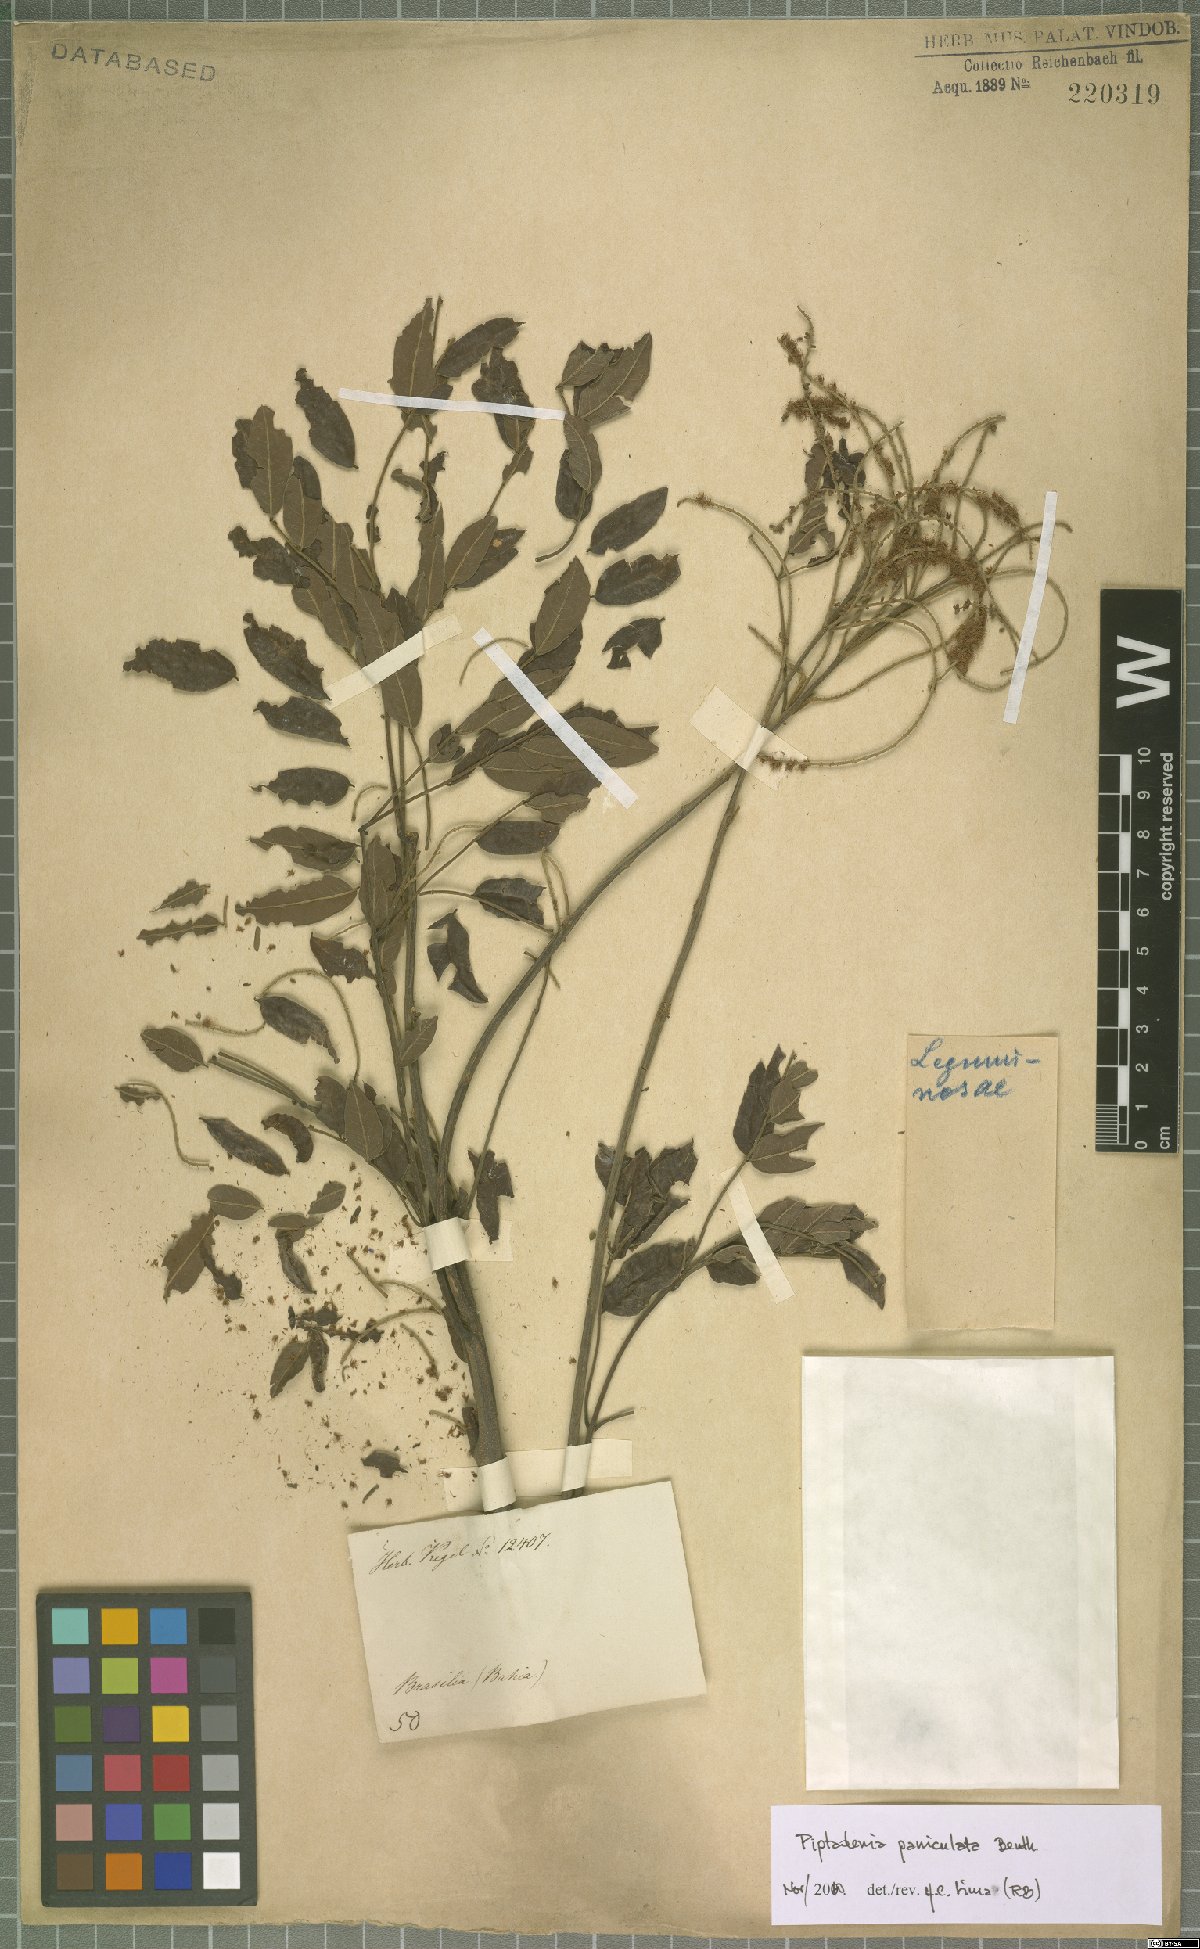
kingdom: Plantae
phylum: Tracheophyta
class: Magnoliopsida
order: Fabales
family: Fabaceae
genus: Piptadenia
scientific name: Piptadenia paniculata
